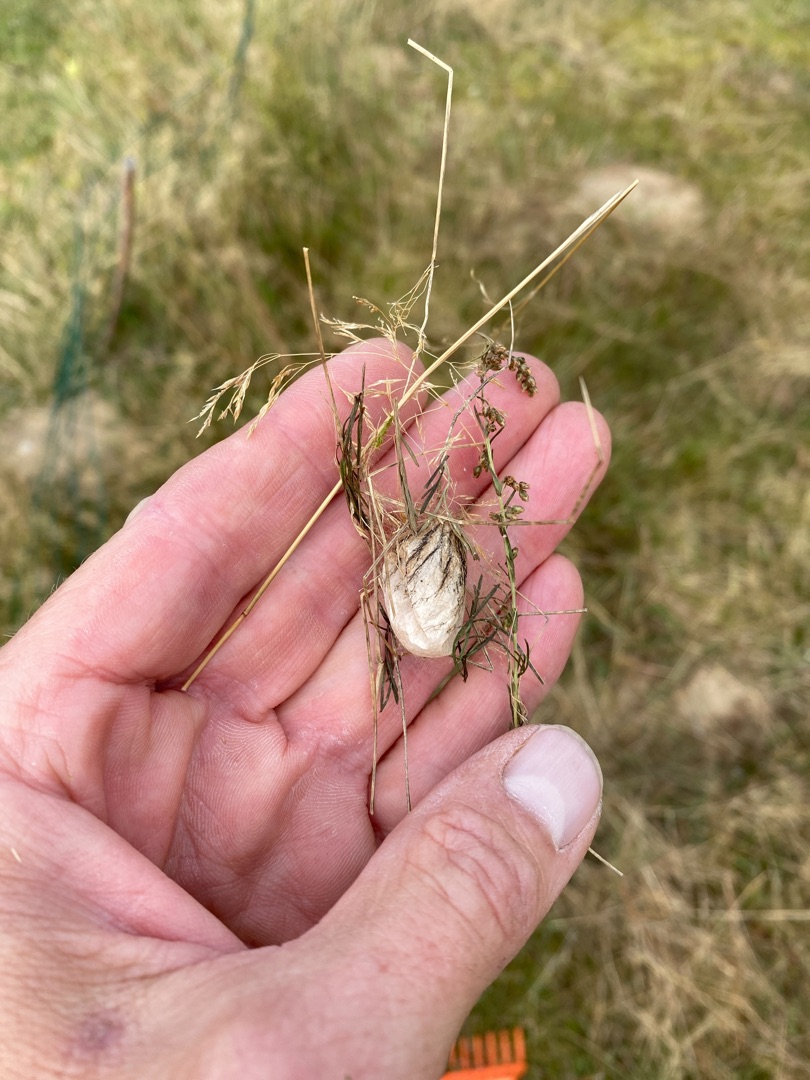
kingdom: Animalia
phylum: Arthropoda
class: Arachnida
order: Araneae
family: Araneidae
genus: Argiope
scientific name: Argiope bruennichi
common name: Hvepseedderkop
